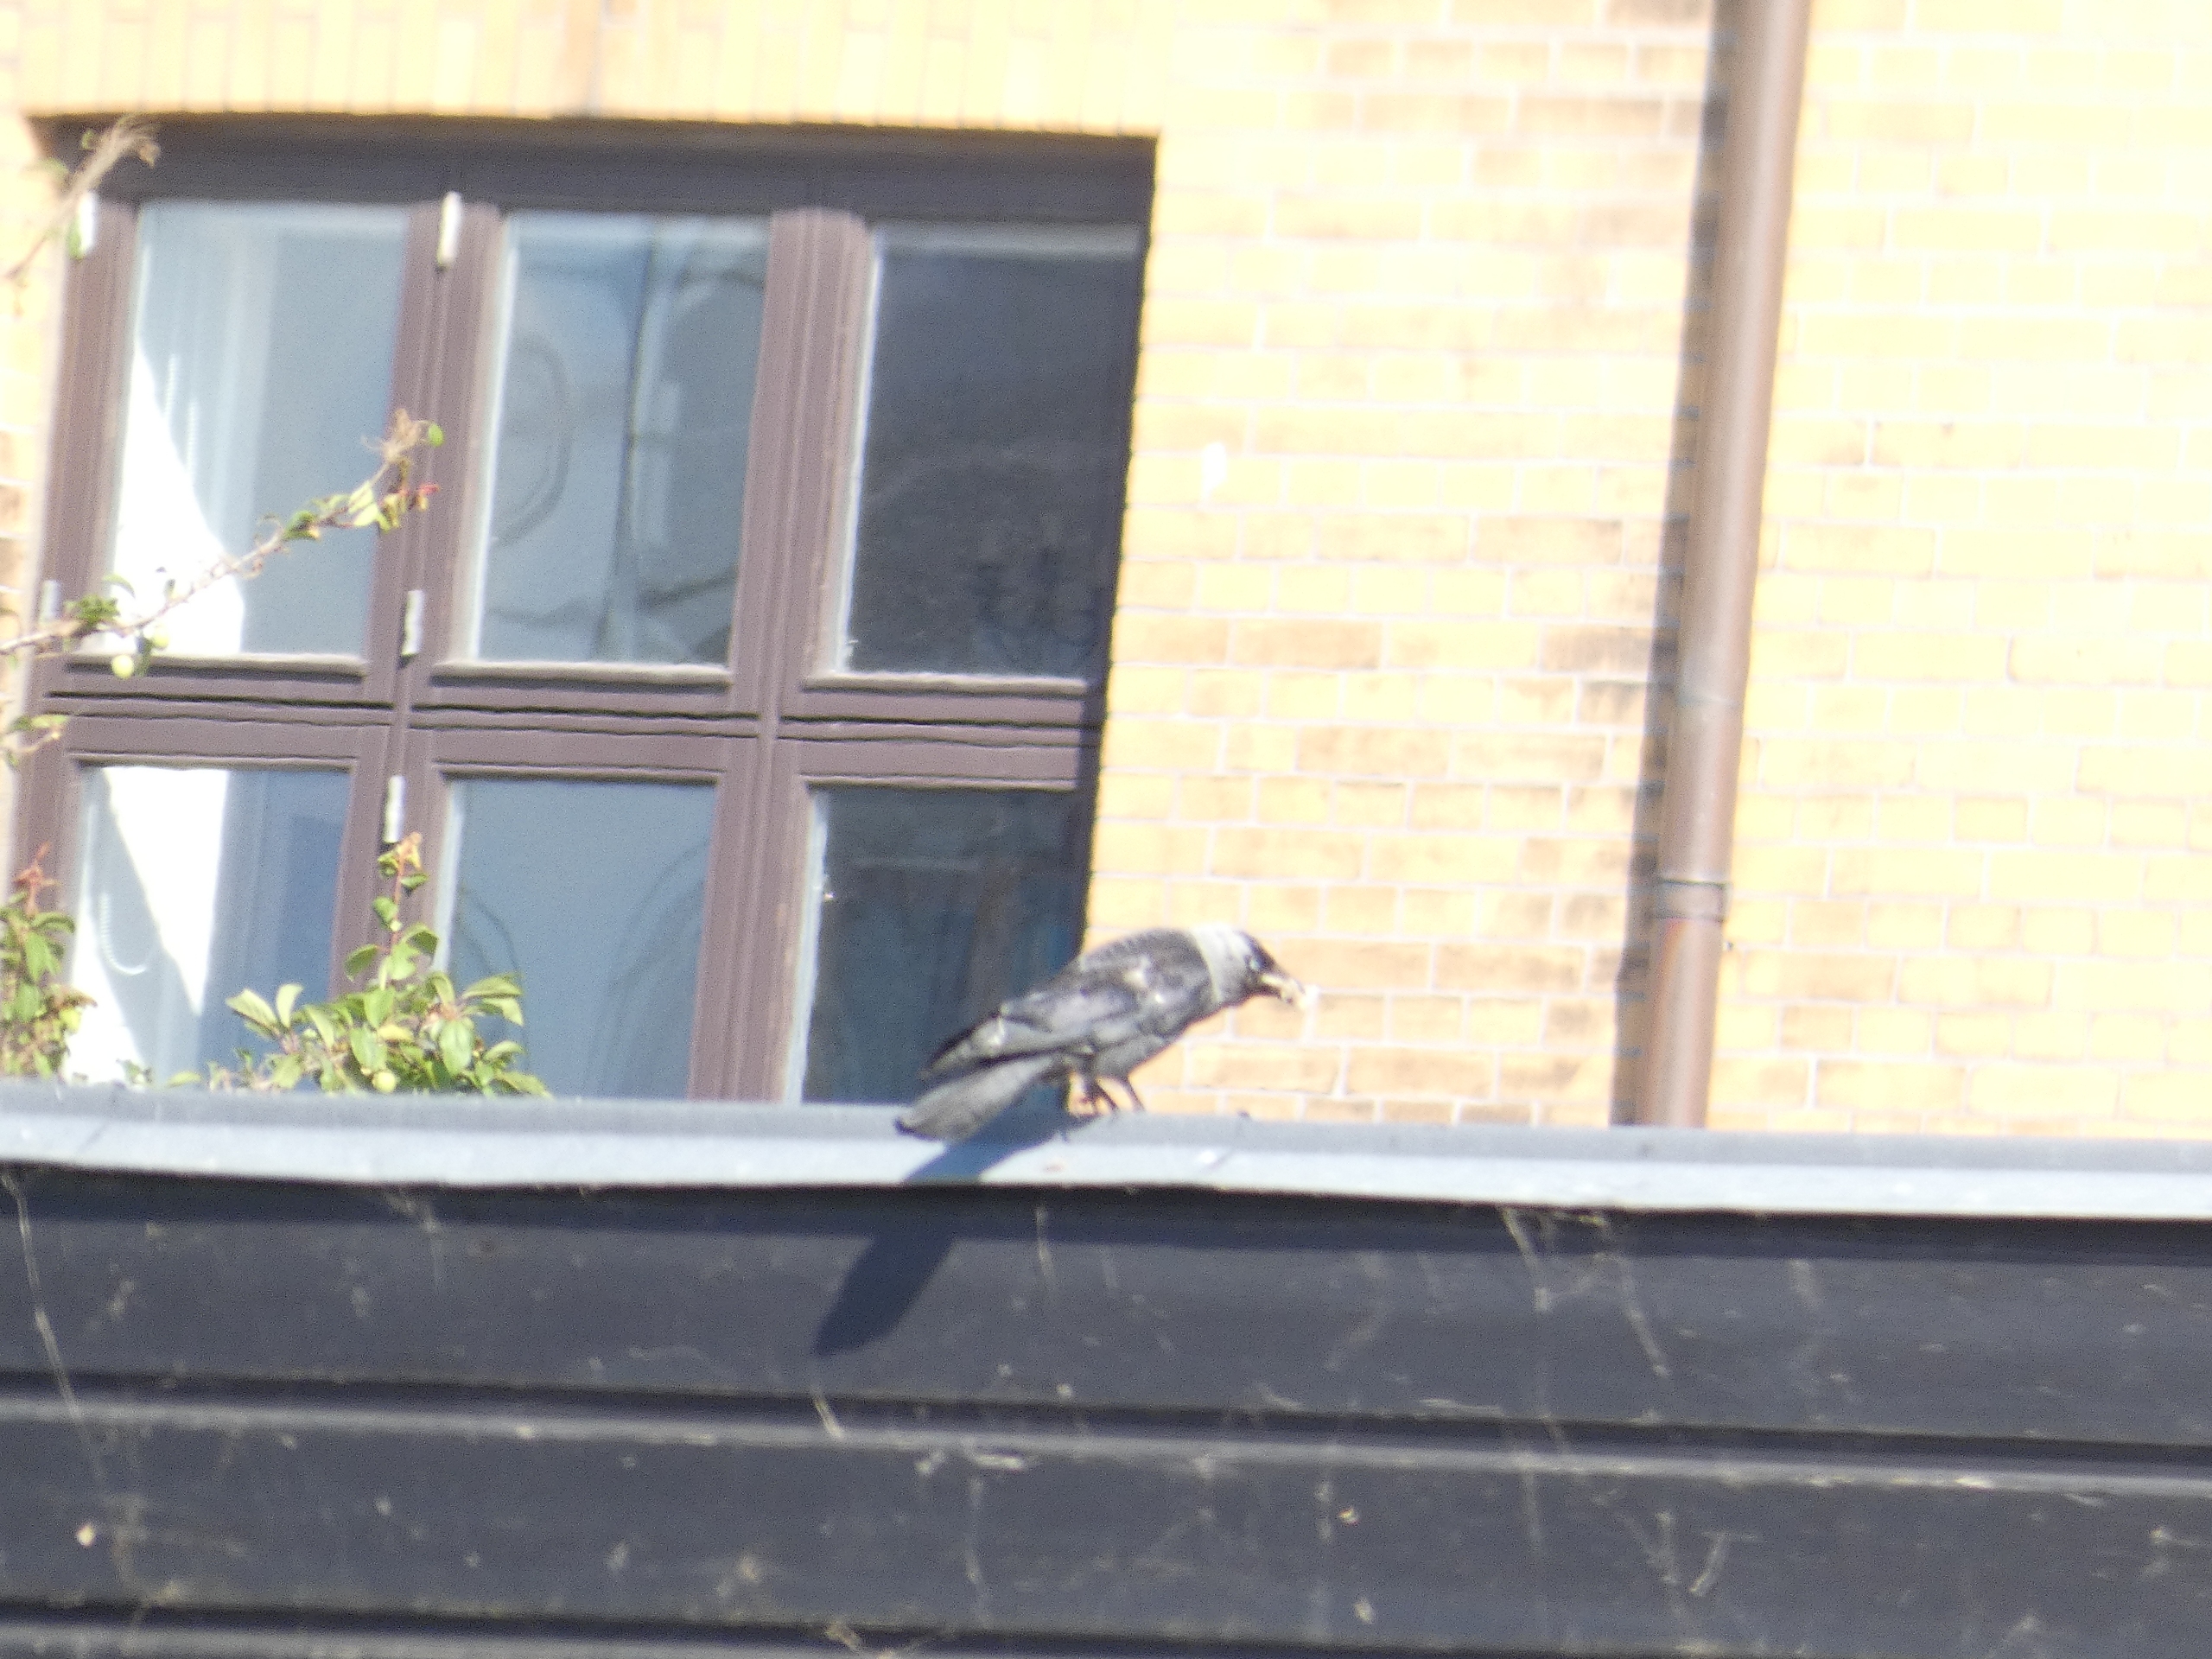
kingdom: Animalia
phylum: Chordata
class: Aves
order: Passeriformes
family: Corvidae
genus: Coloeus
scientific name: Coloeus monedula
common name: Allike
